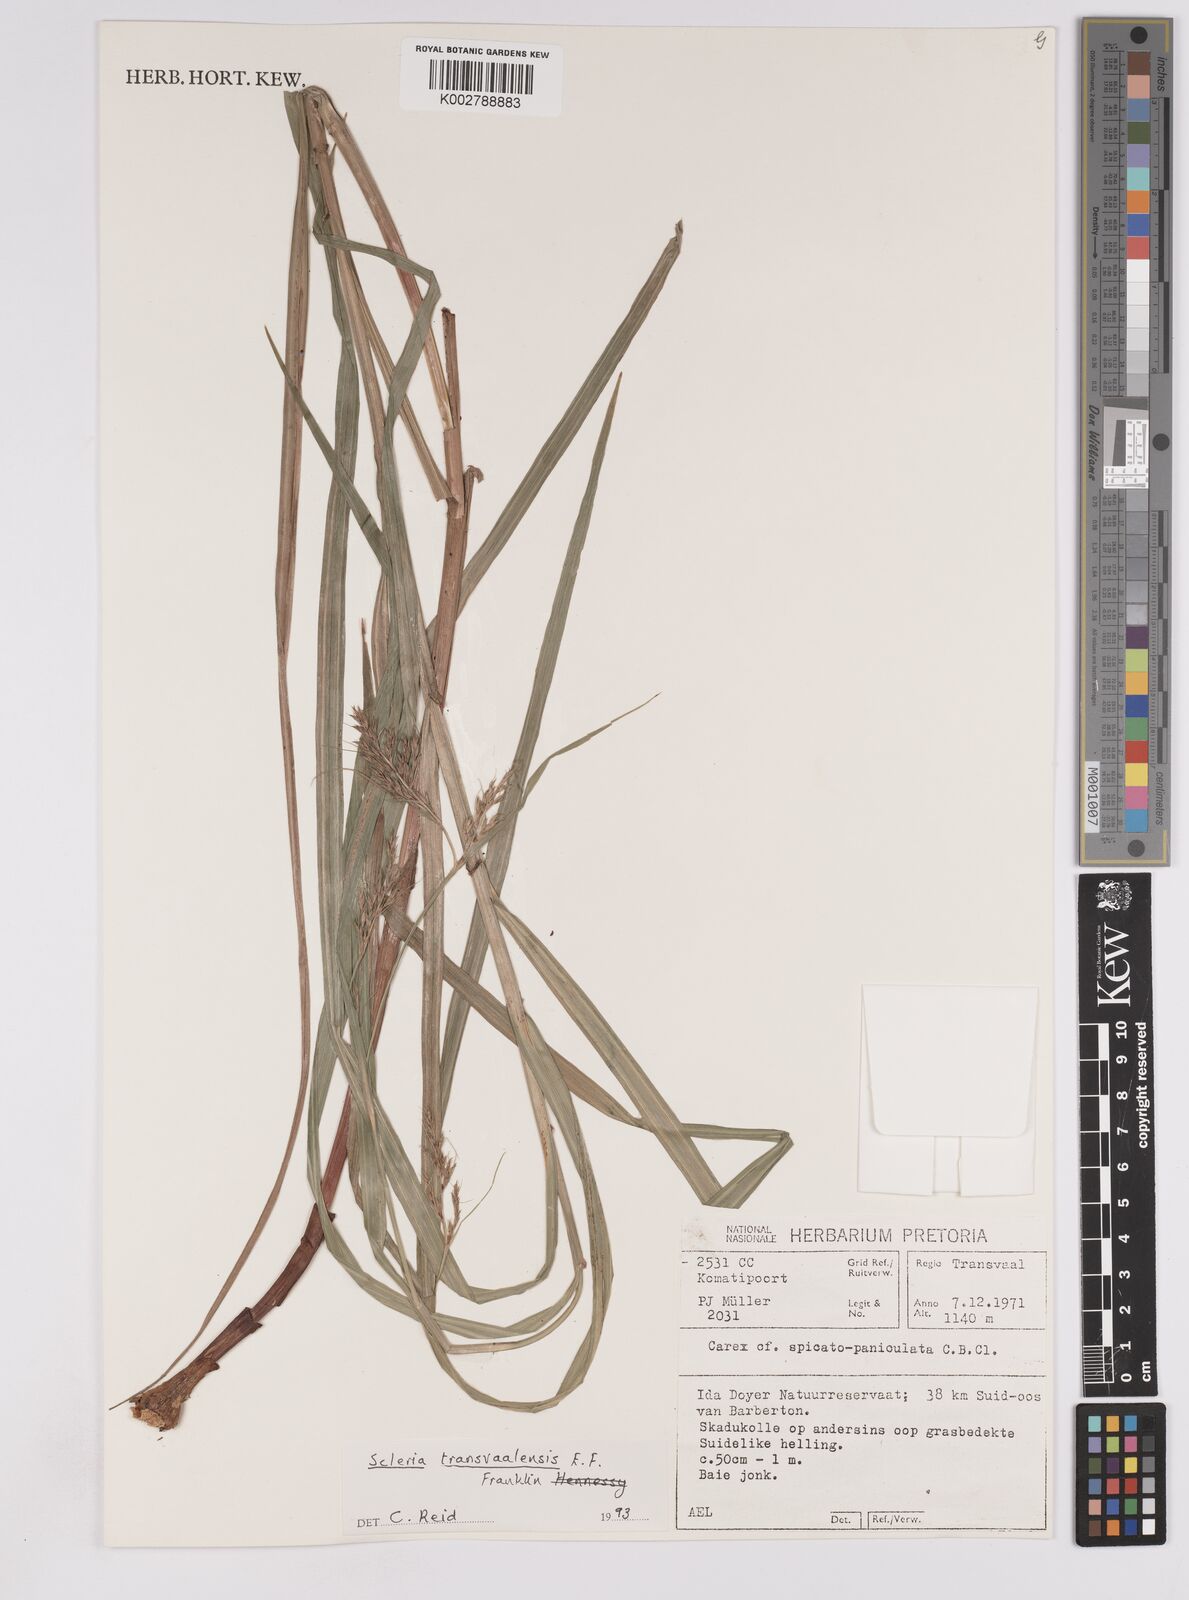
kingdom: Plantae
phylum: Tracheophyta
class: Liliopsida
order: Poales
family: Cyperaceae
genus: Scleria
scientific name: Scleria transvaalensis
